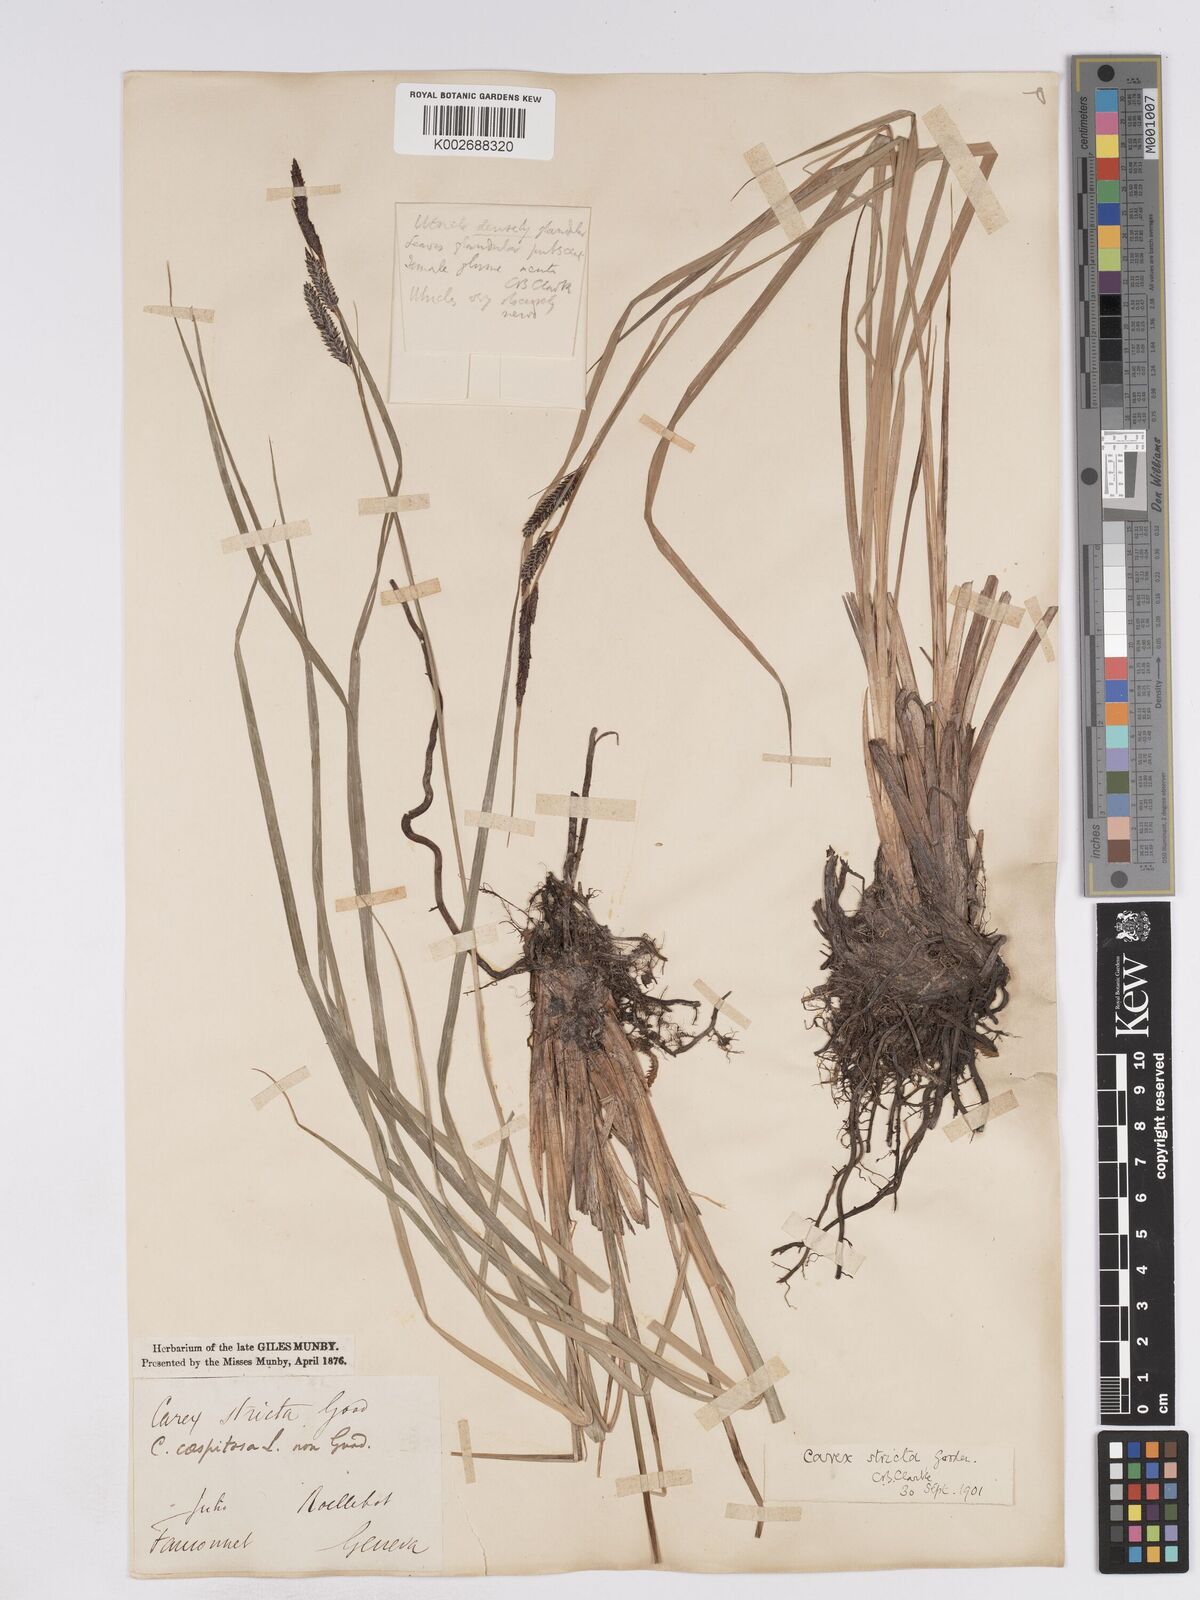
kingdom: Plantae
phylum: Tracheophyta
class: Liliopsida
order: Poales
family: Cyperaceae
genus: Carex
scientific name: Carex elata
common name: Tufted sedge
